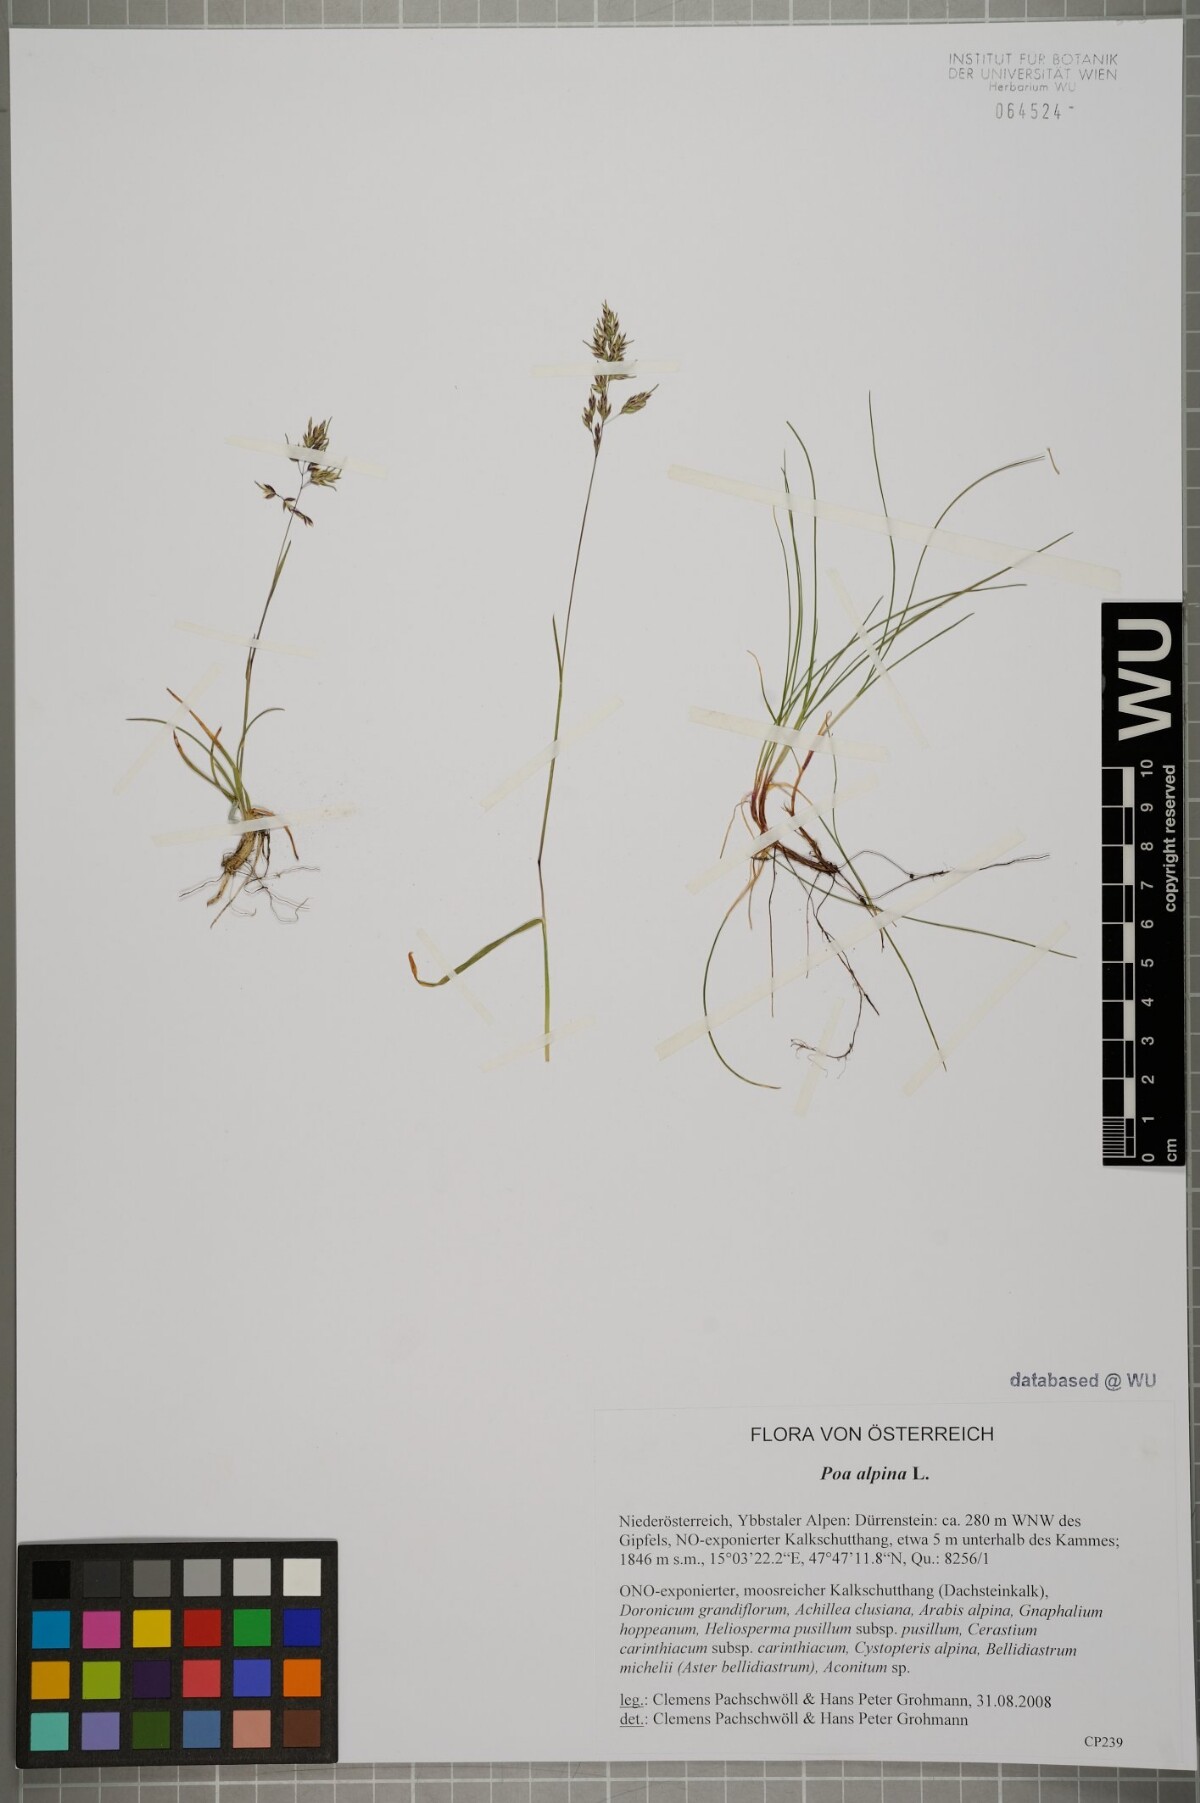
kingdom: Plantae
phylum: Tracheophyta
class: Liliopsida
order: Poales
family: Poaceae
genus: Poa
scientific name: Poa alpina
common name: Alpine bluegrass
